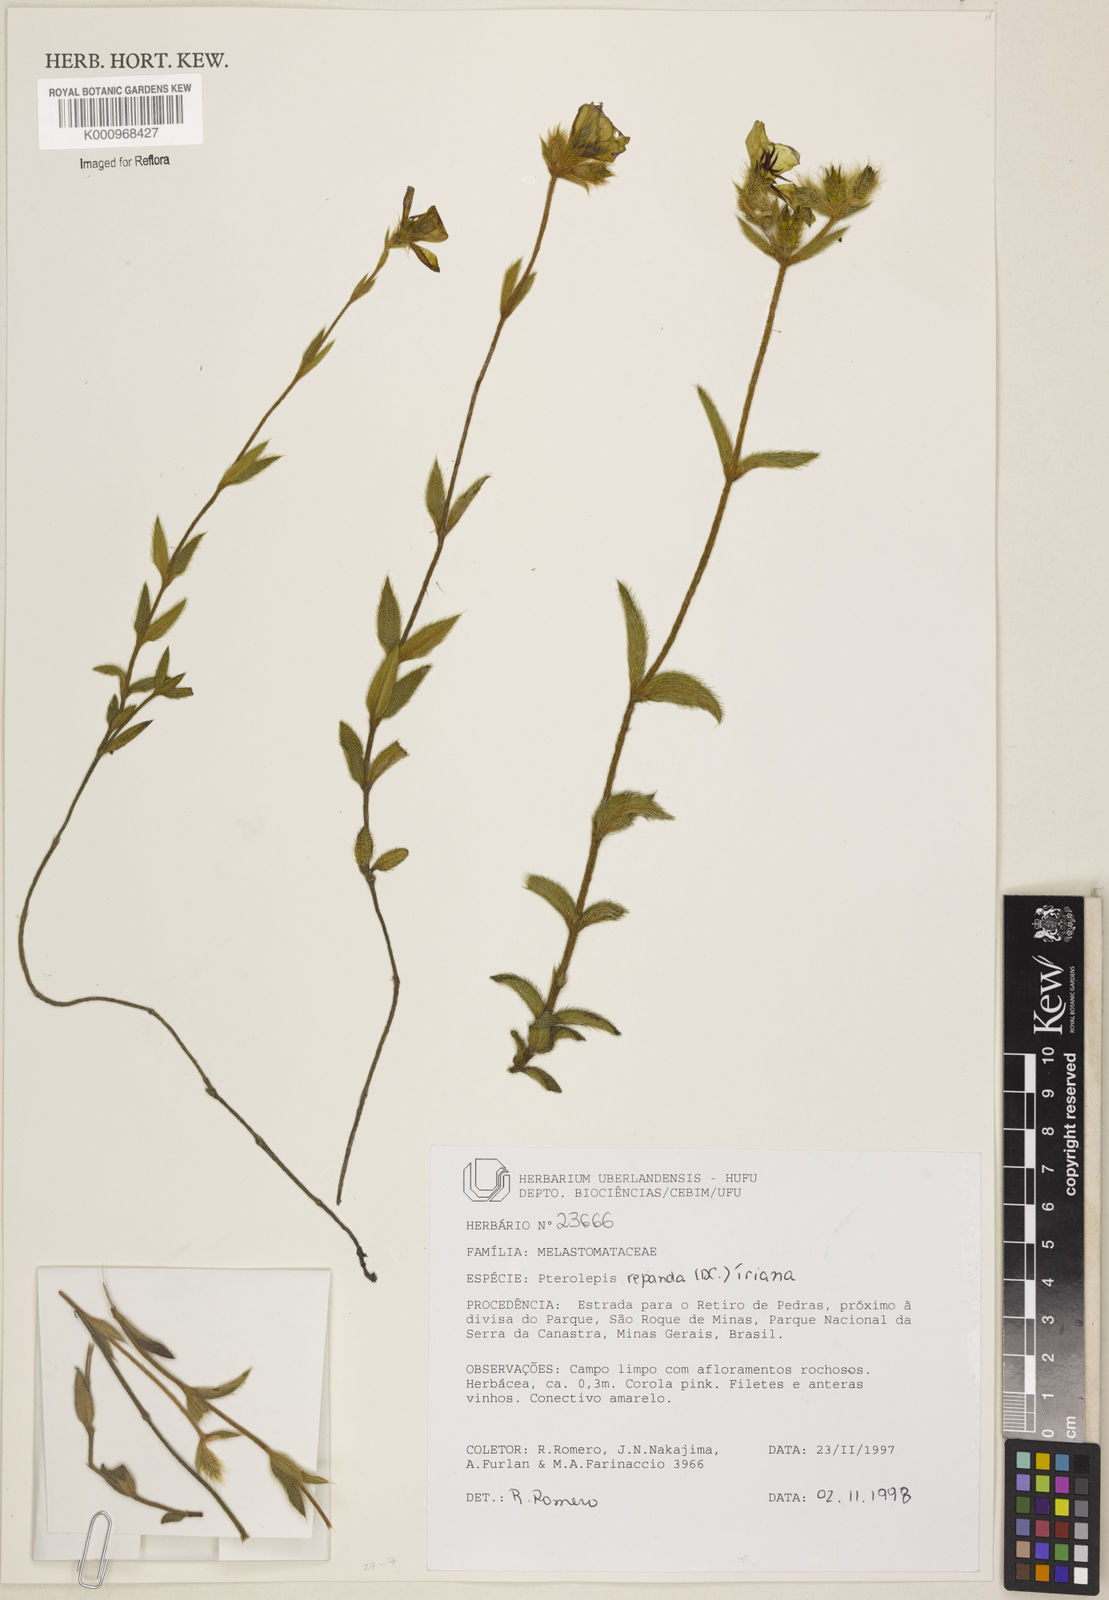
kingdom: Plantae
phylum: Tracheophyta
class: Magnoliopsida
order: Myrtales
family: Melastomataceae
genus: Pterolepis
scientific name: Pterolepis repanda
